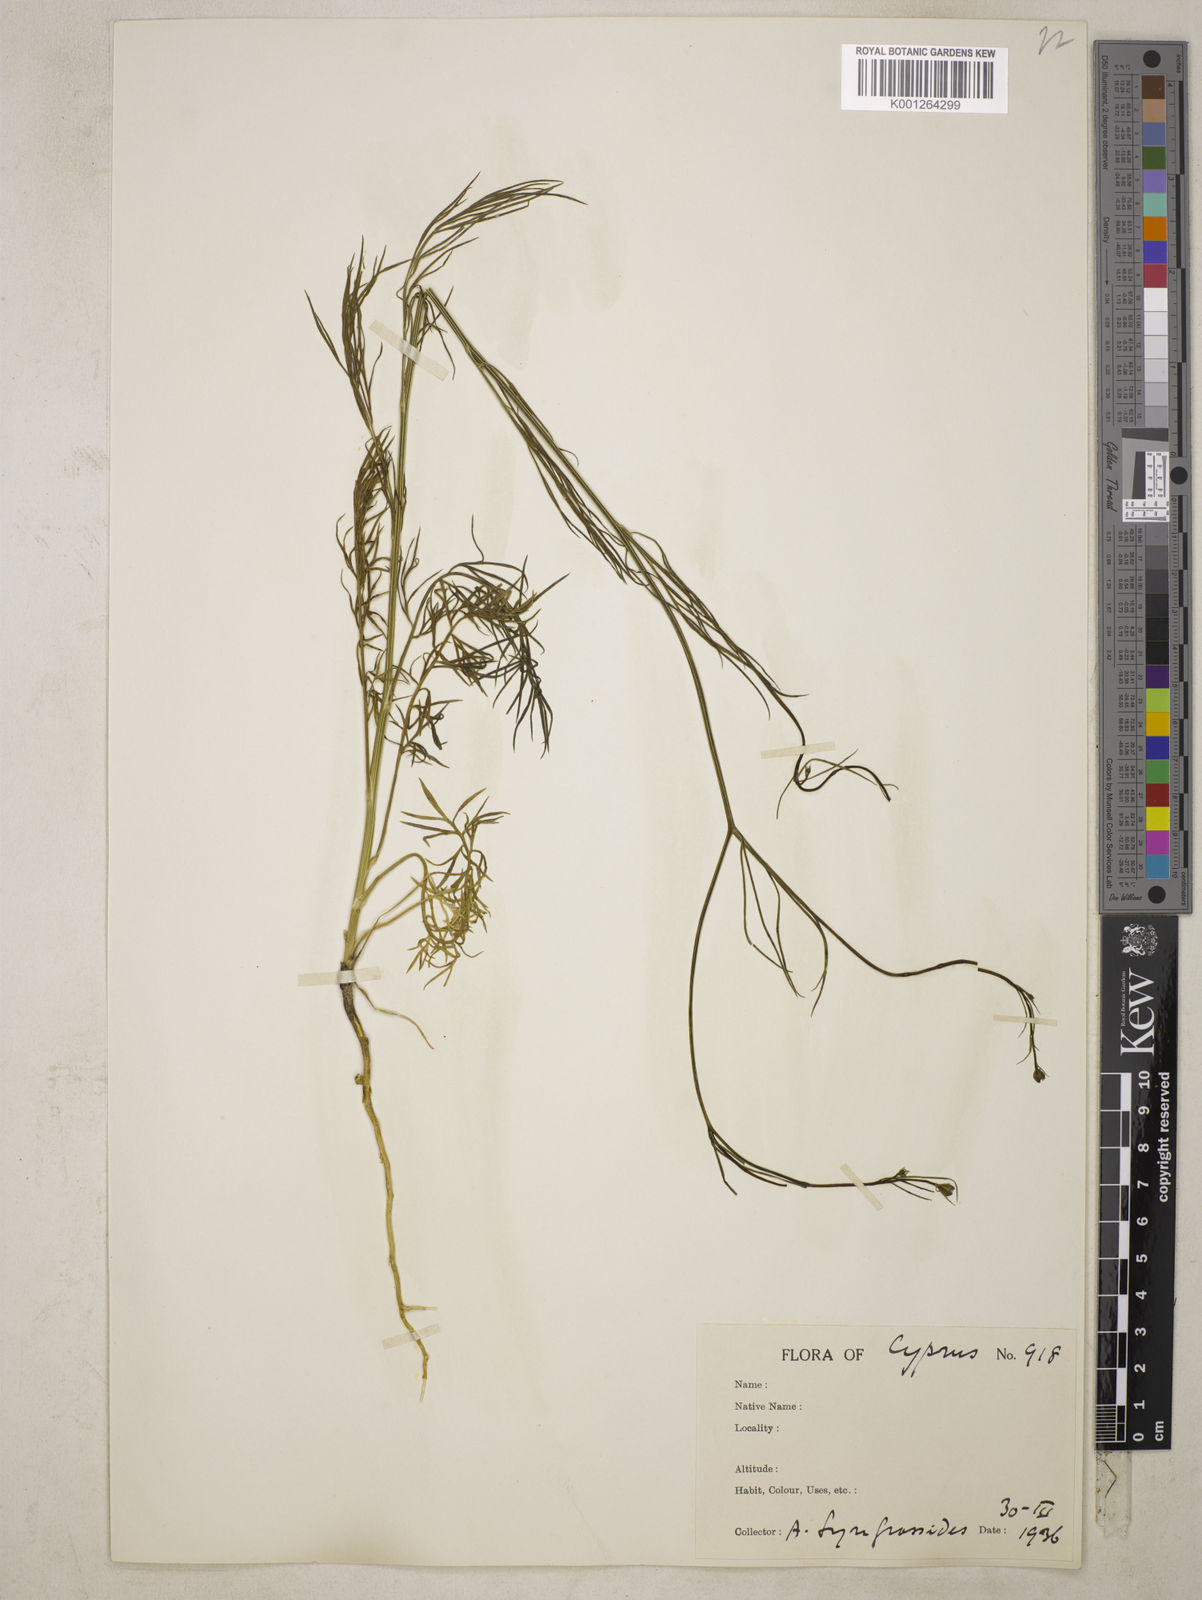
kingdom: Plantae
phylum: Tracheophyta
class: Magnoliopsida
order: Ranunculales
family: Ranunculaceae
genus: Garidella
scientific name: Garidella nigellastrum
